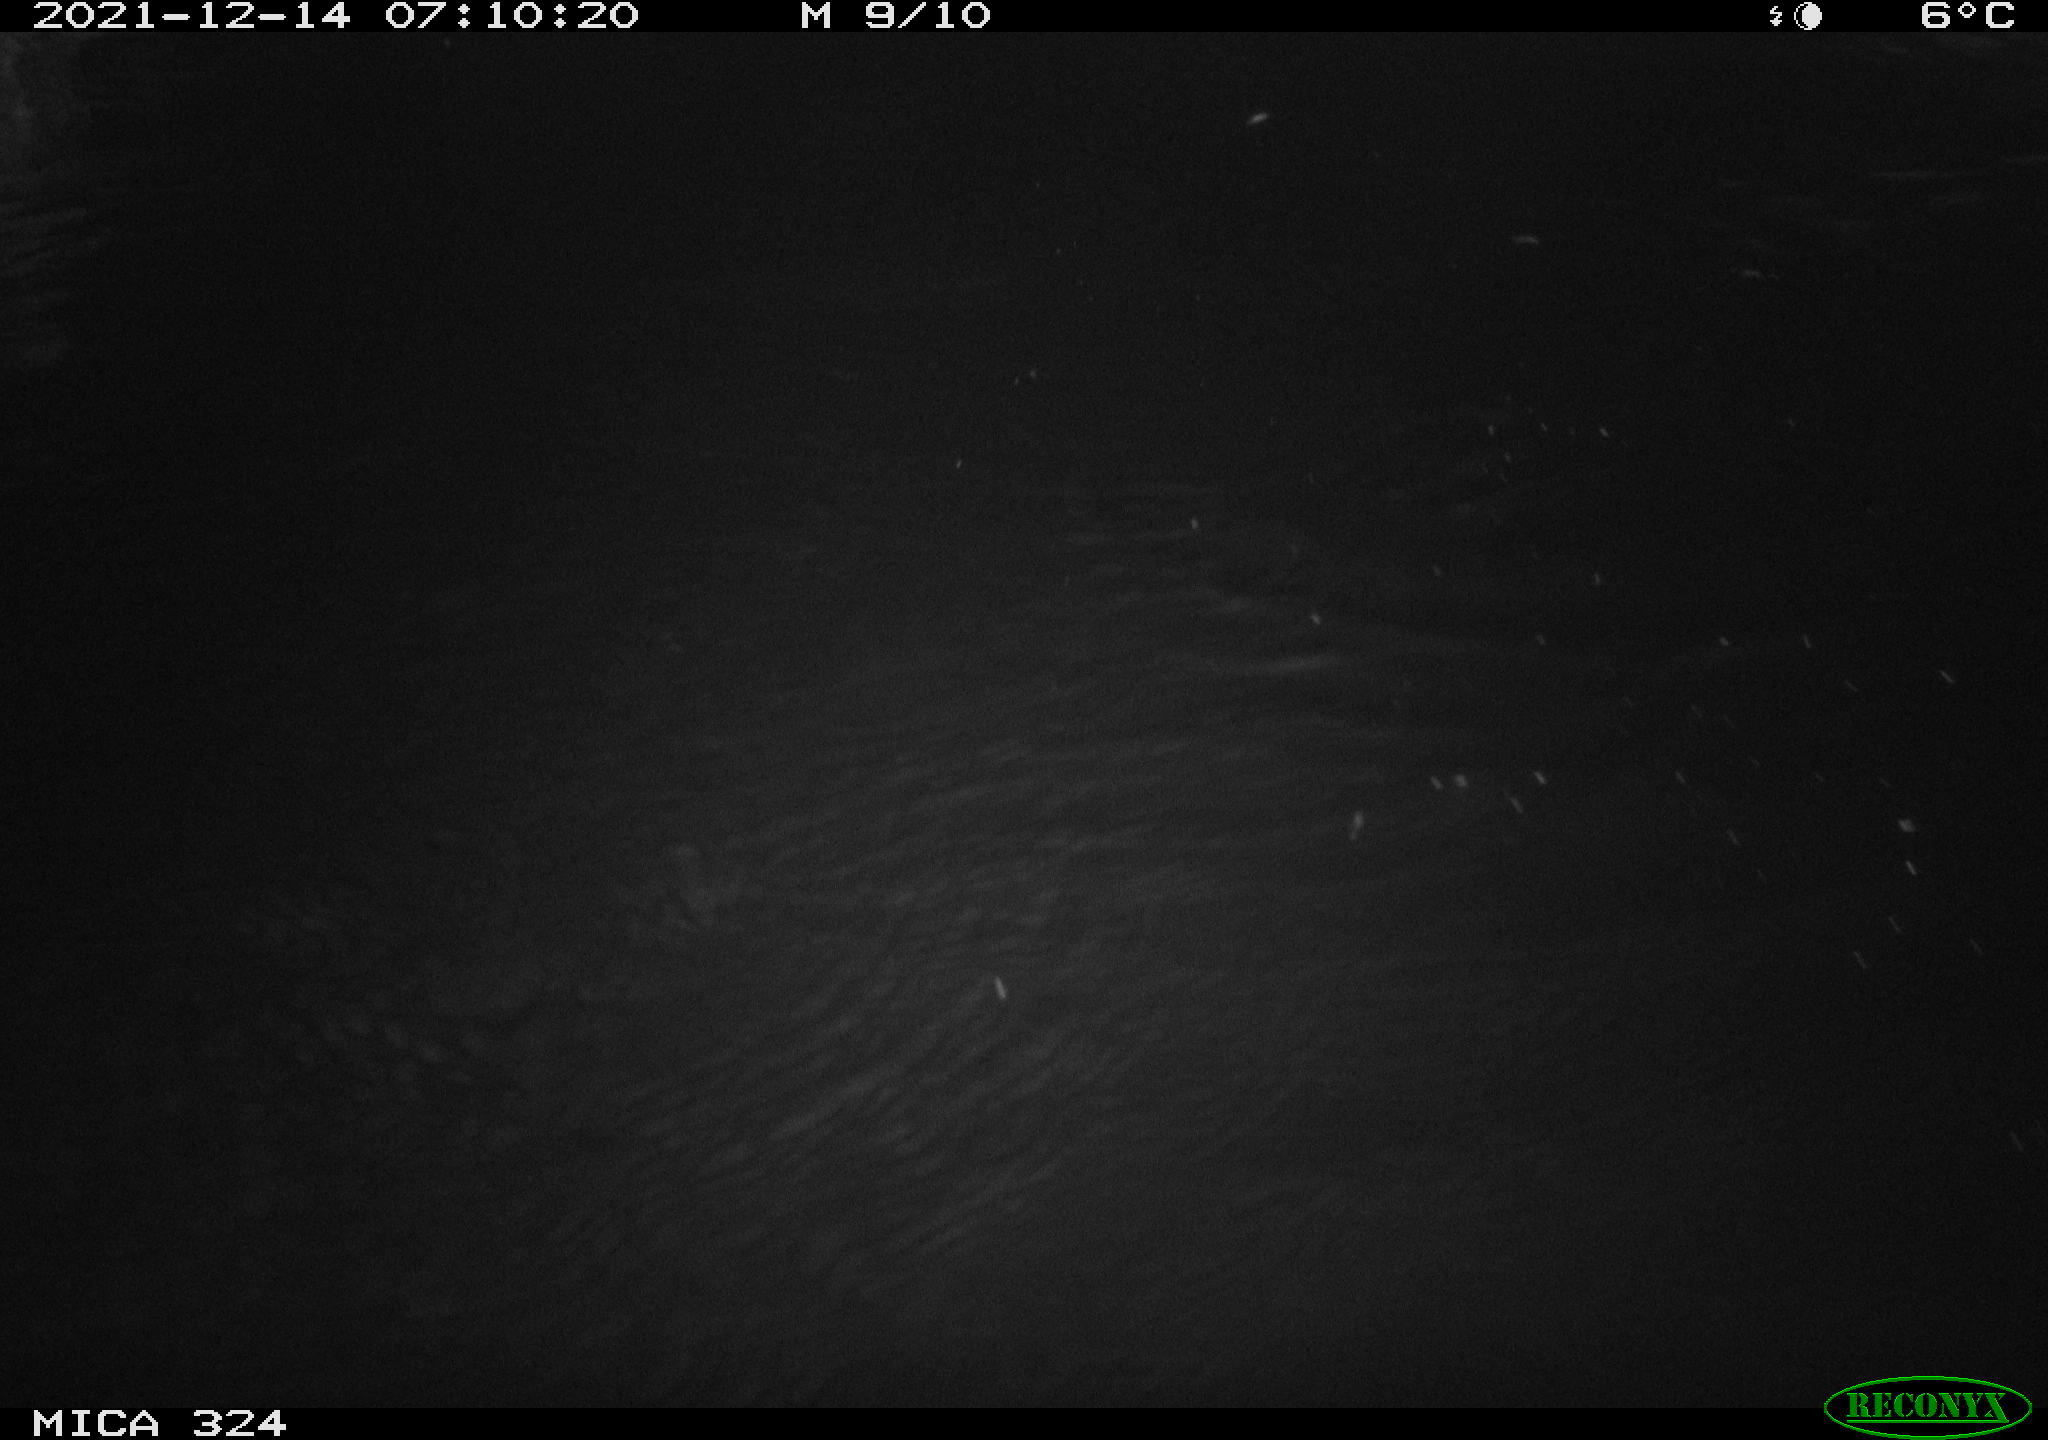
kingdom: Animalia
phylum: Chordata
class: Mammalia
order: Rodentia
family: Myocastoridae
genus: Myocastor
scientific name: Myocastor coypus
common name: Coypu
